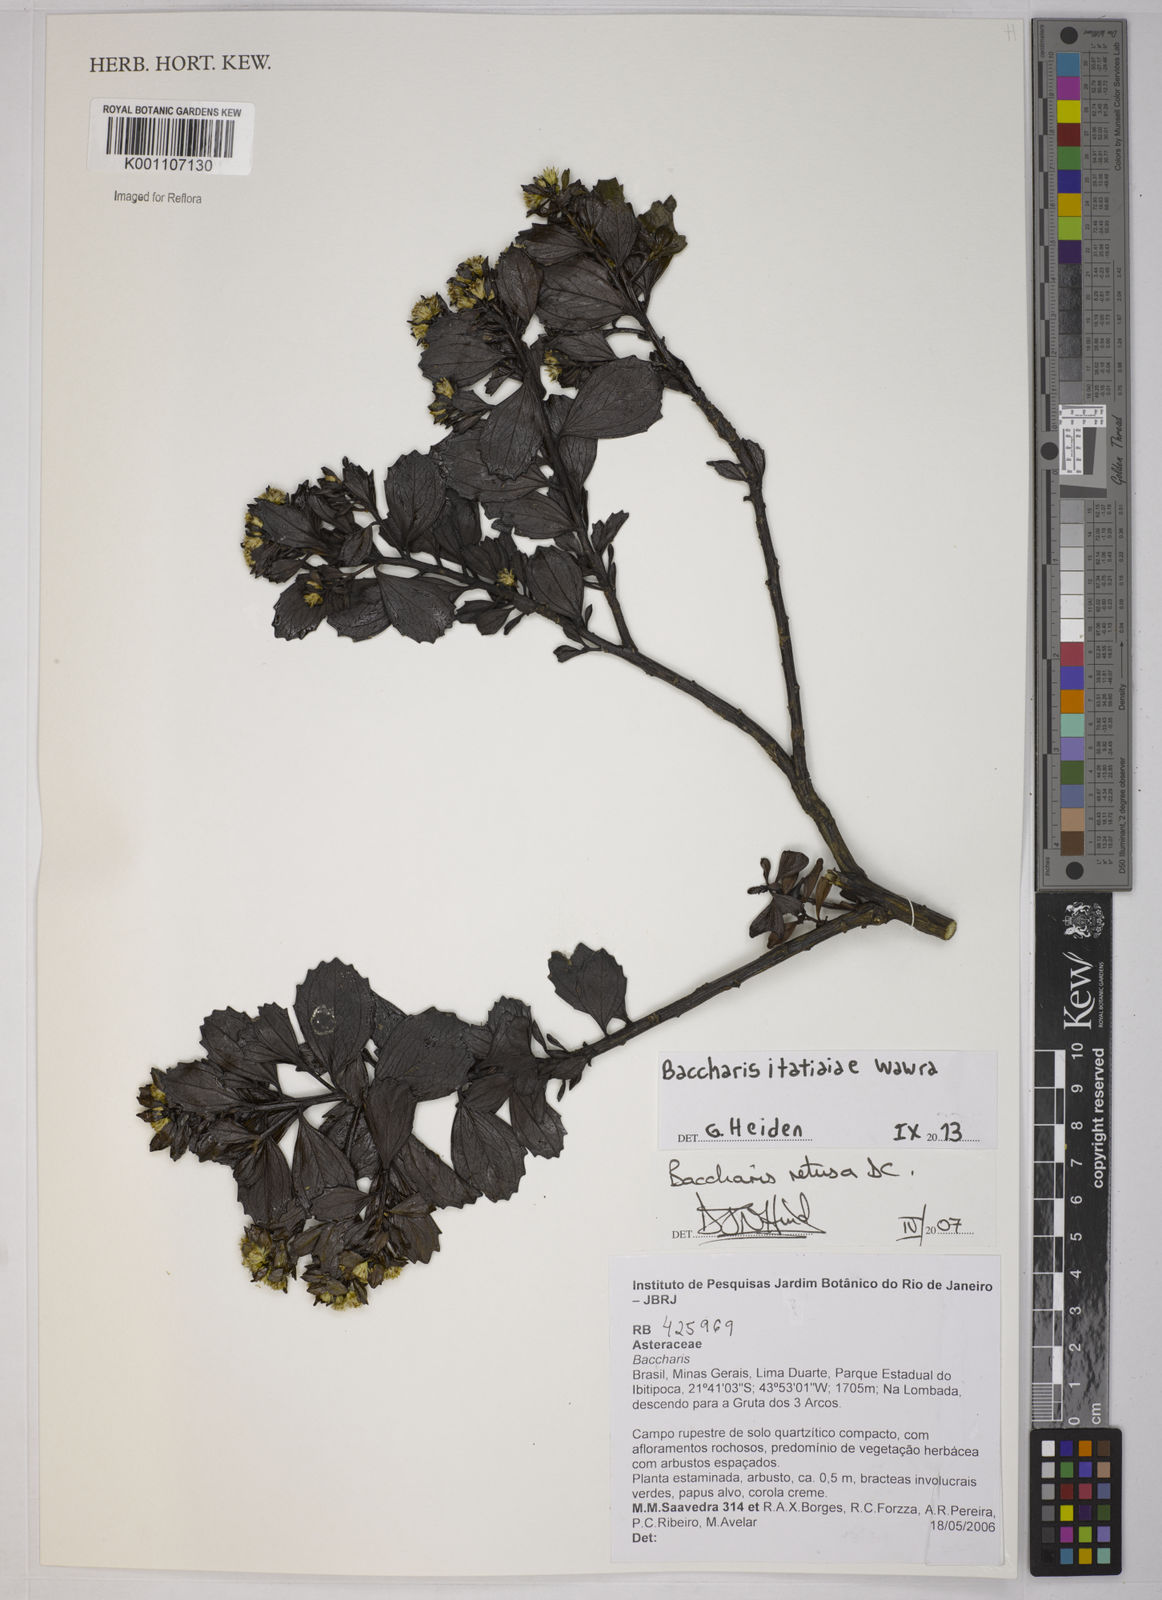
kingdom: Plantae
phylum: Tracheophyta
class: Magnoliopsida
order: Asterales
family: Asteraceae
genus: Baccharis
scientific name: Baccharis itatiaiae
